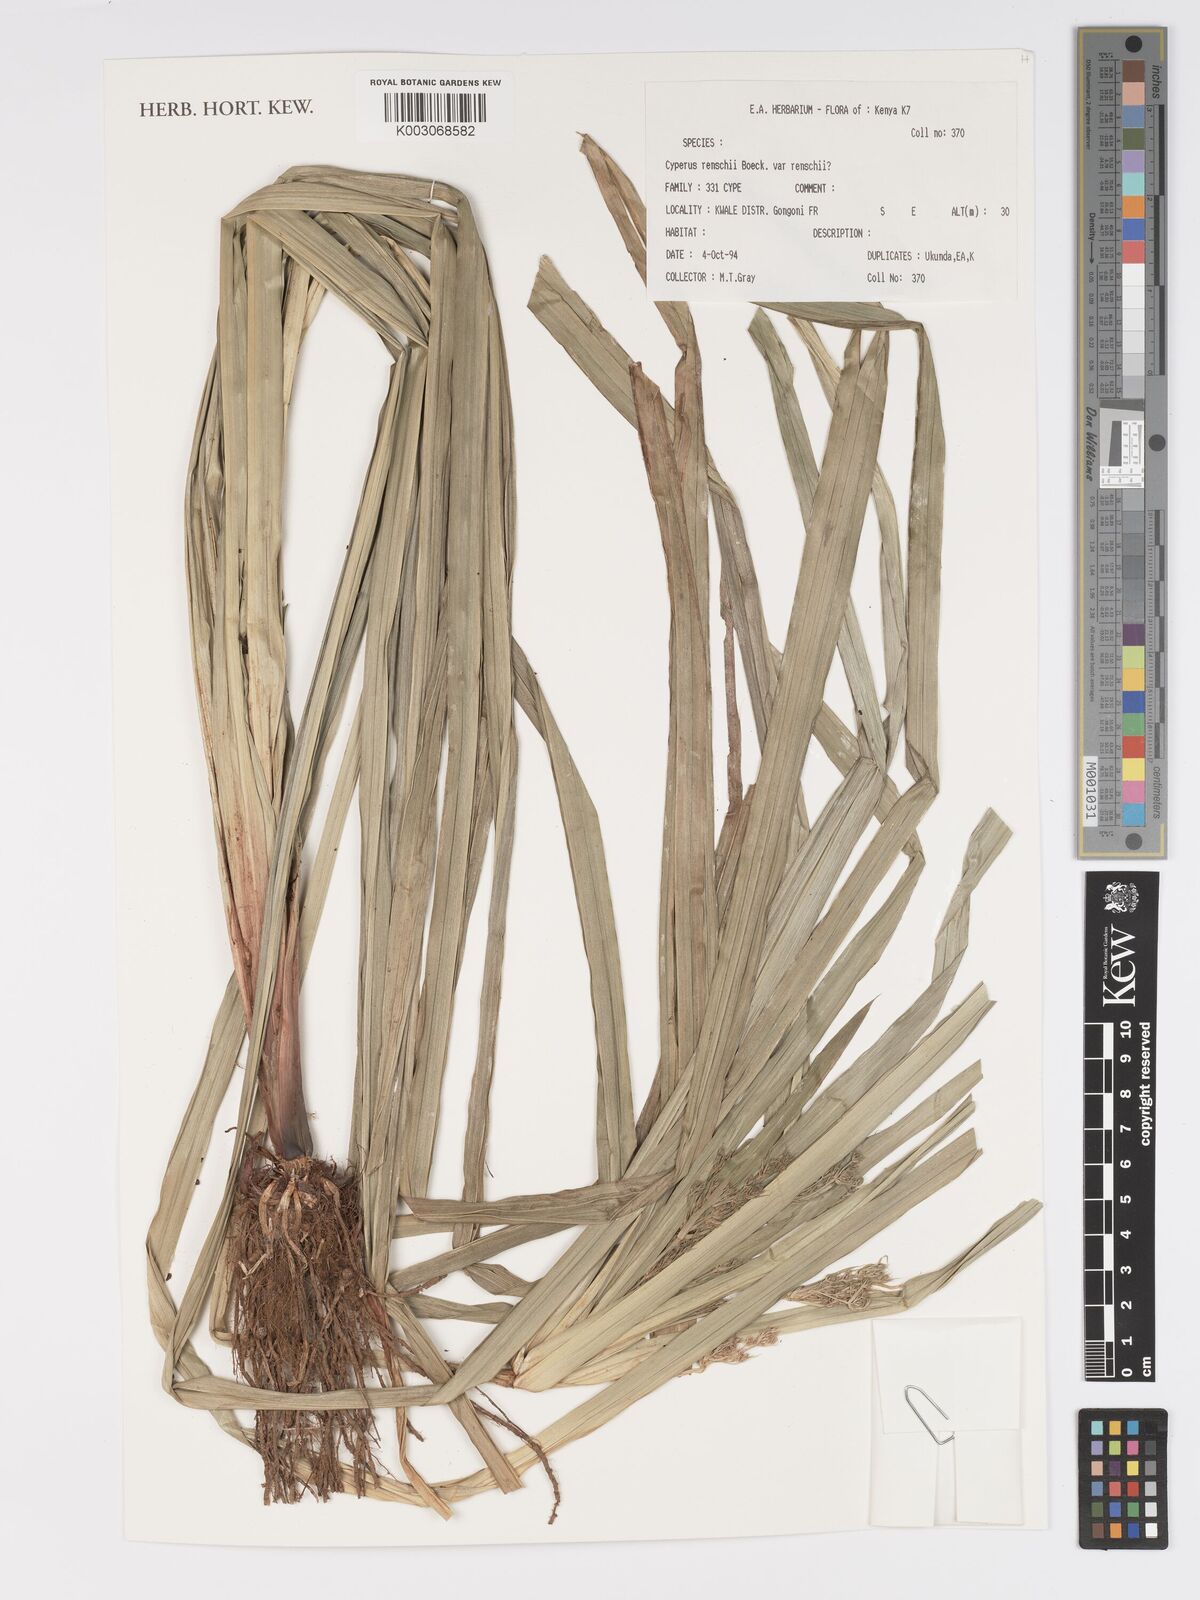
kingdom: Plantae
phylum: Tracheophyta
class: Liliopsida
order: Poales
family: Cyperaceae
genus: Cyperus
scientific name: Cyperus renschii
